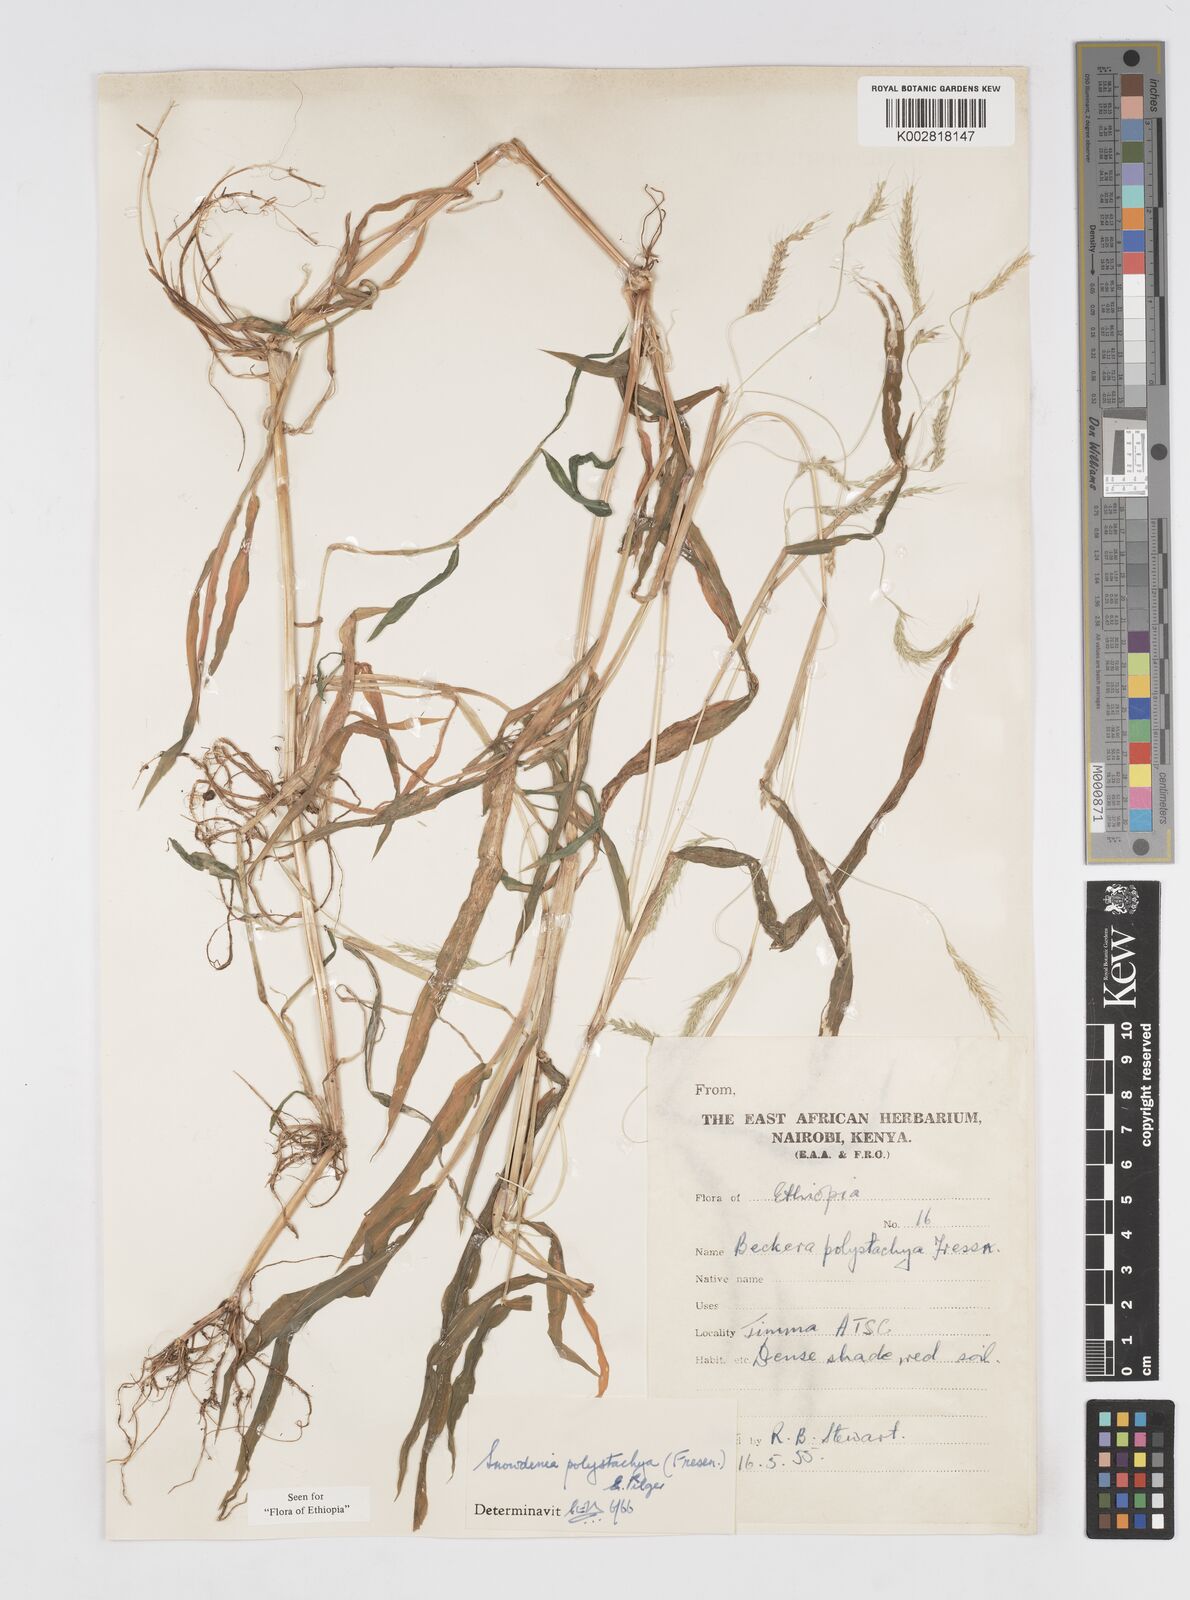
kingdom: Plantae
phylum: Tracheophyta
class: Liliopsida
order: Poales
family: Poaceae
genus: Snowdenia
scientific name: Snowdenia polystachya
